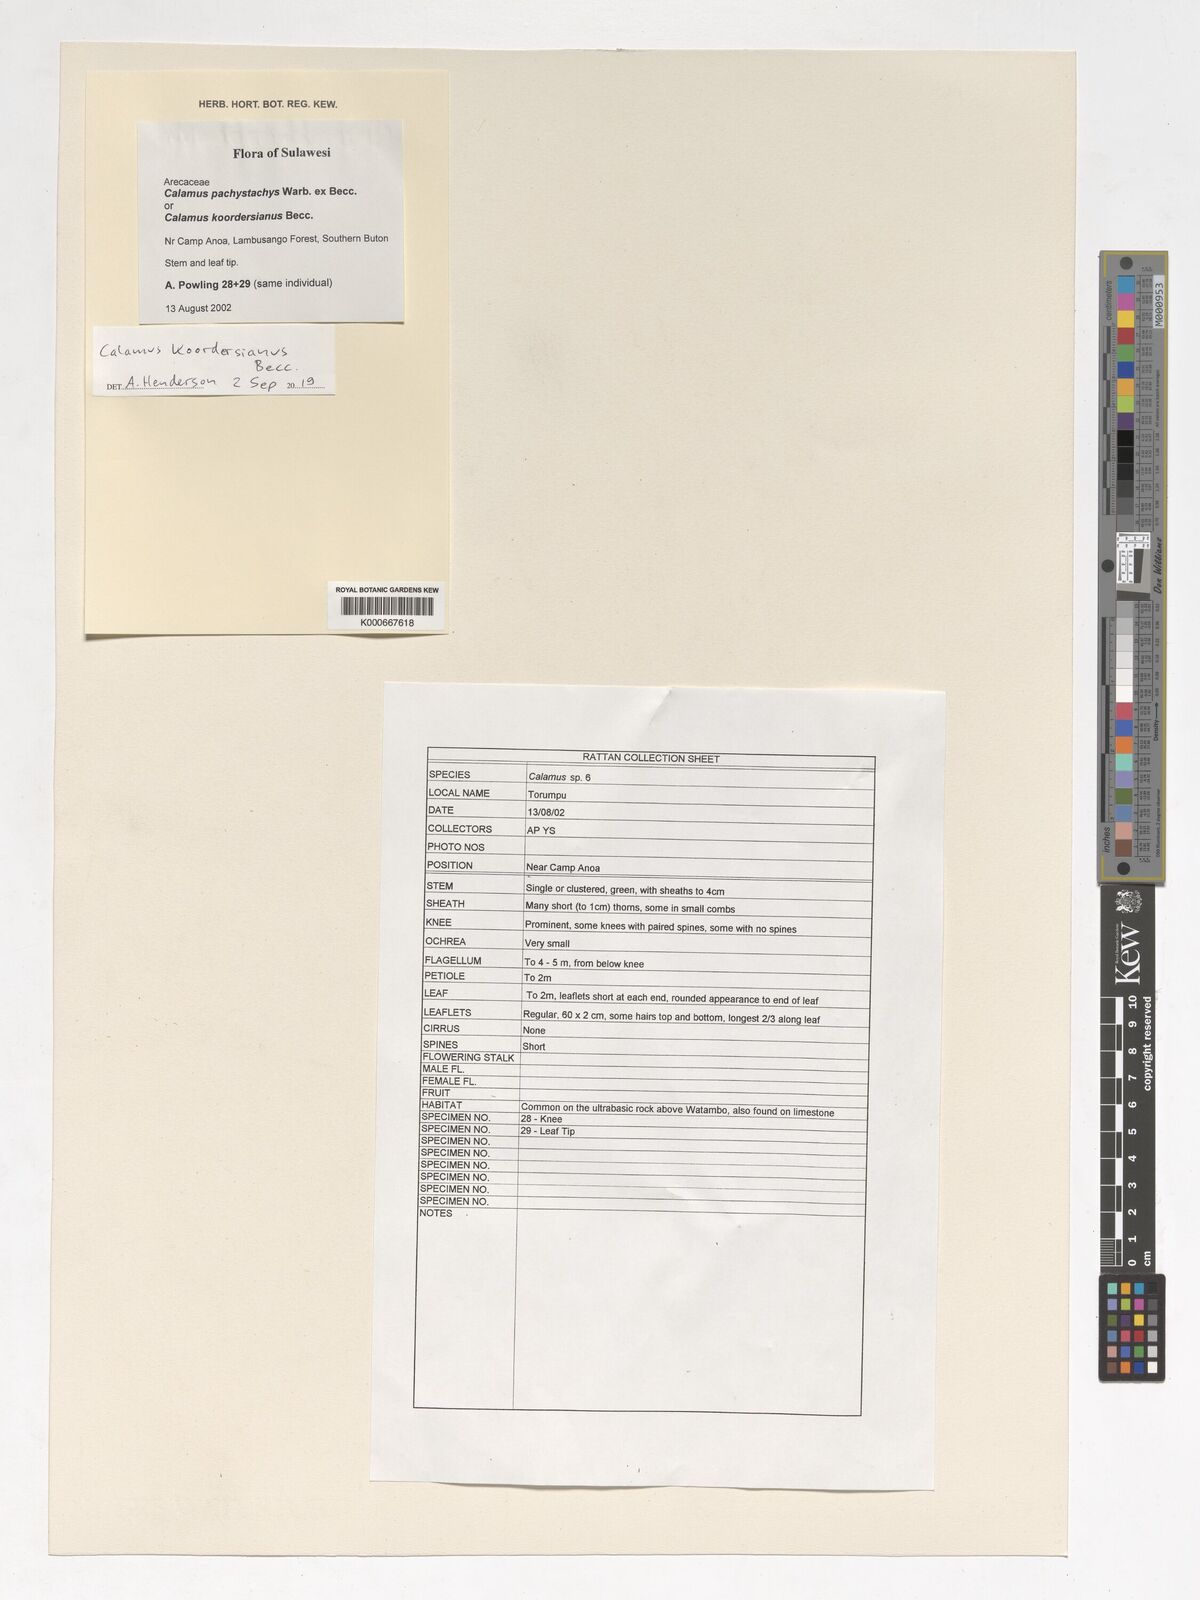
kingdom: Plantae
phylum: Tracheophyta
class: Liliopsida
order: Arecales
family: Arecaceae
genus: Calamus
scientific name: Calamus koordersianus
